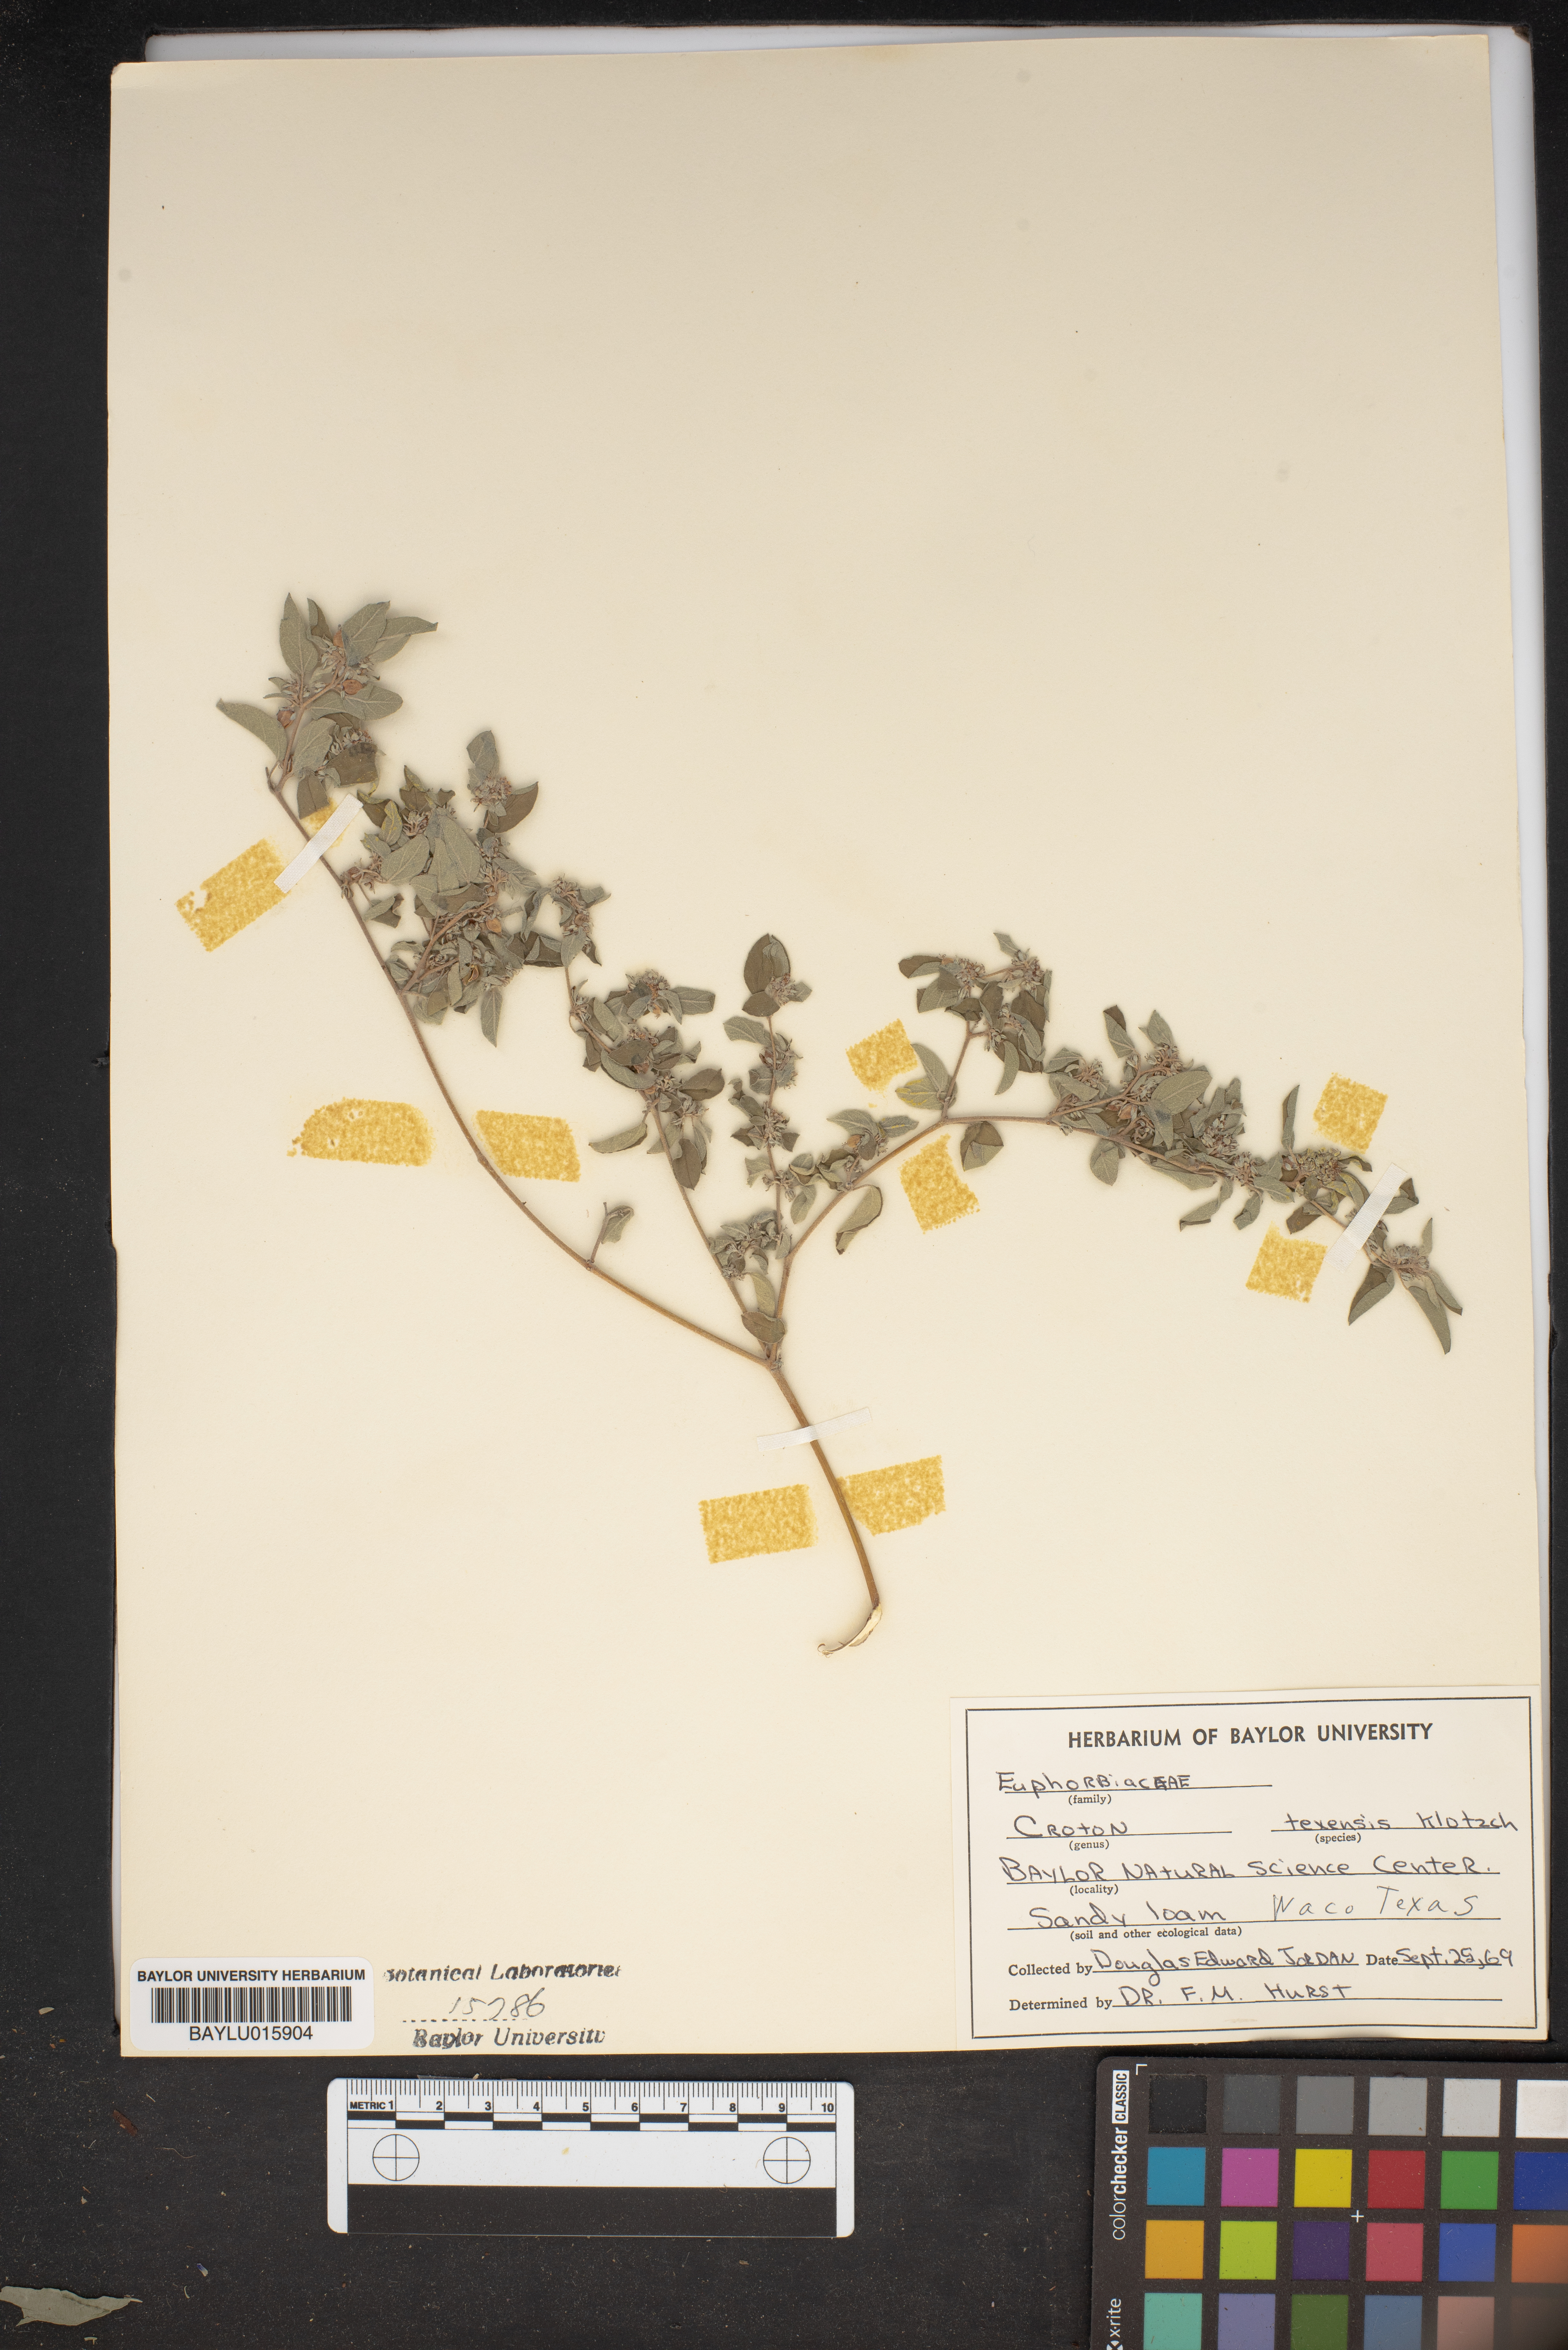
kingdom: Plantae
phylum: Tracheophyta
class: Magnoliopsida
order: Malpighiales
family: Euphorbiaceae
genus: Croton
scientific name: Croton texensis
